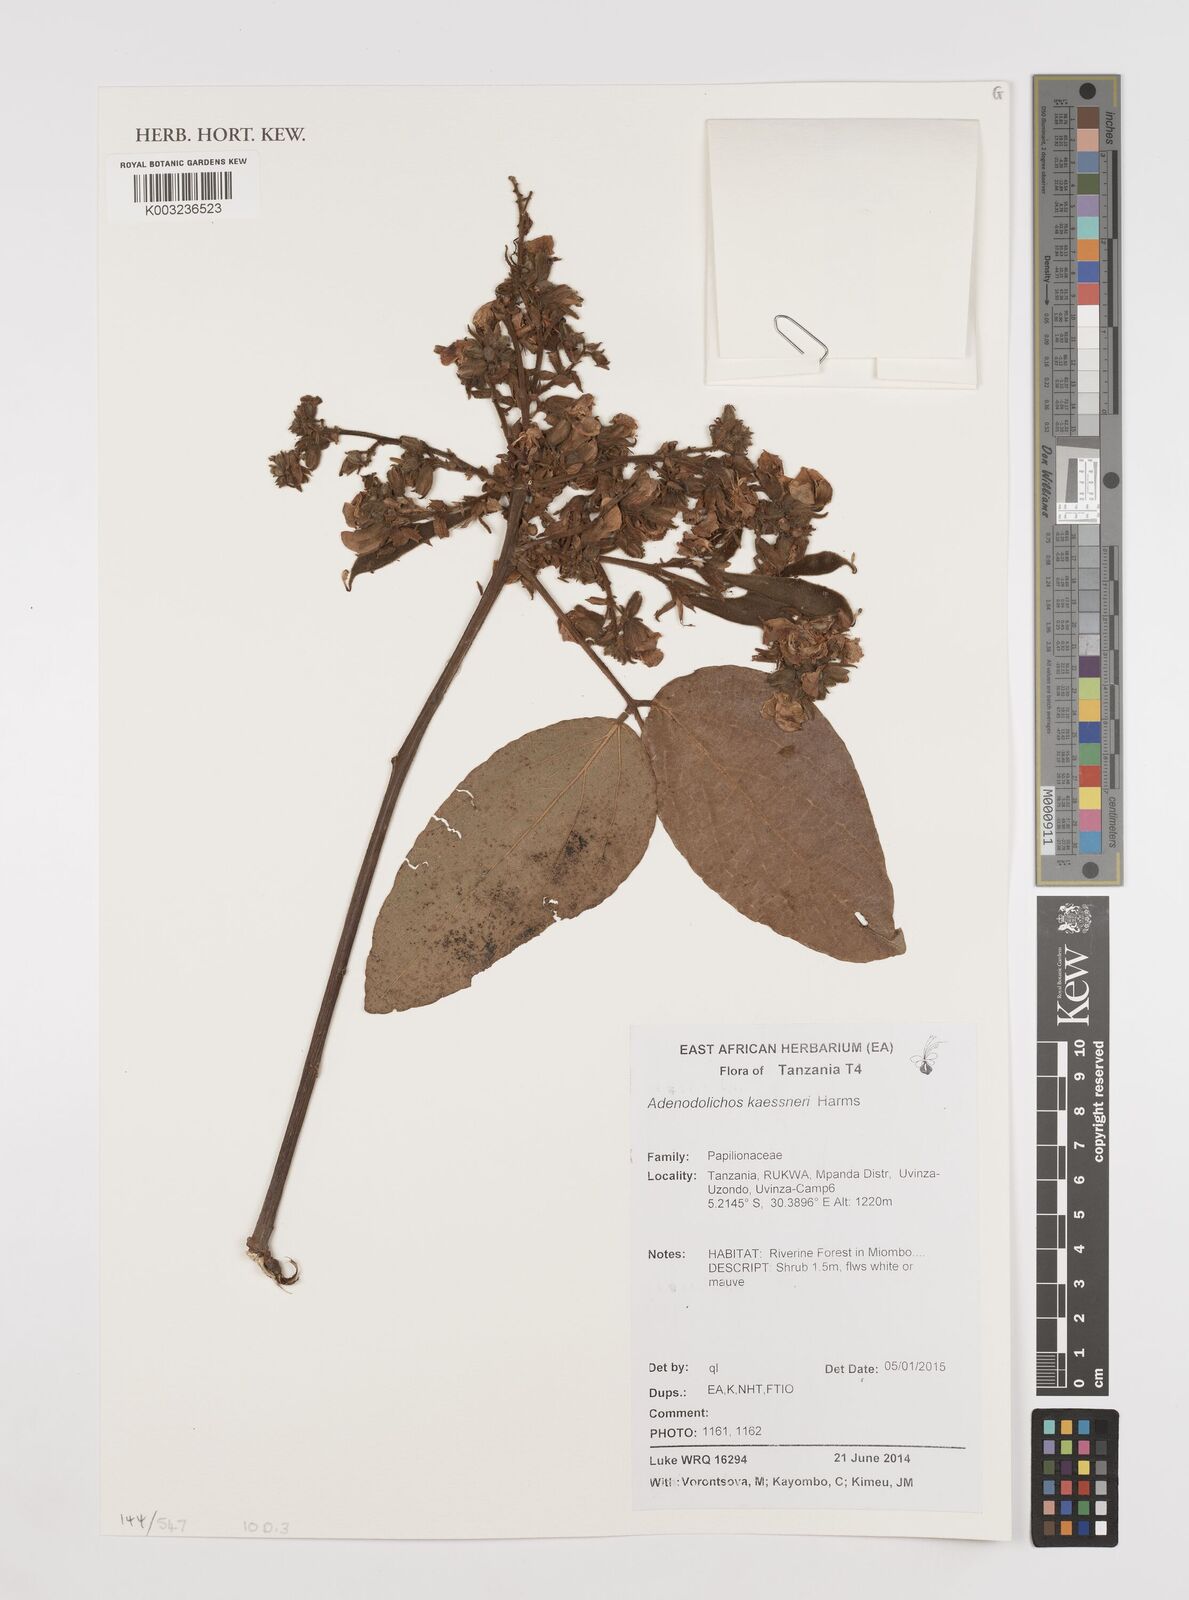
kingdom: Plantae
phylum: Tracheophyta
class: Magnoliopsida
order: Fabales
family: Fabaceae
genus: Adenodolichos
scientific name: Adenodolichos kaessneri
